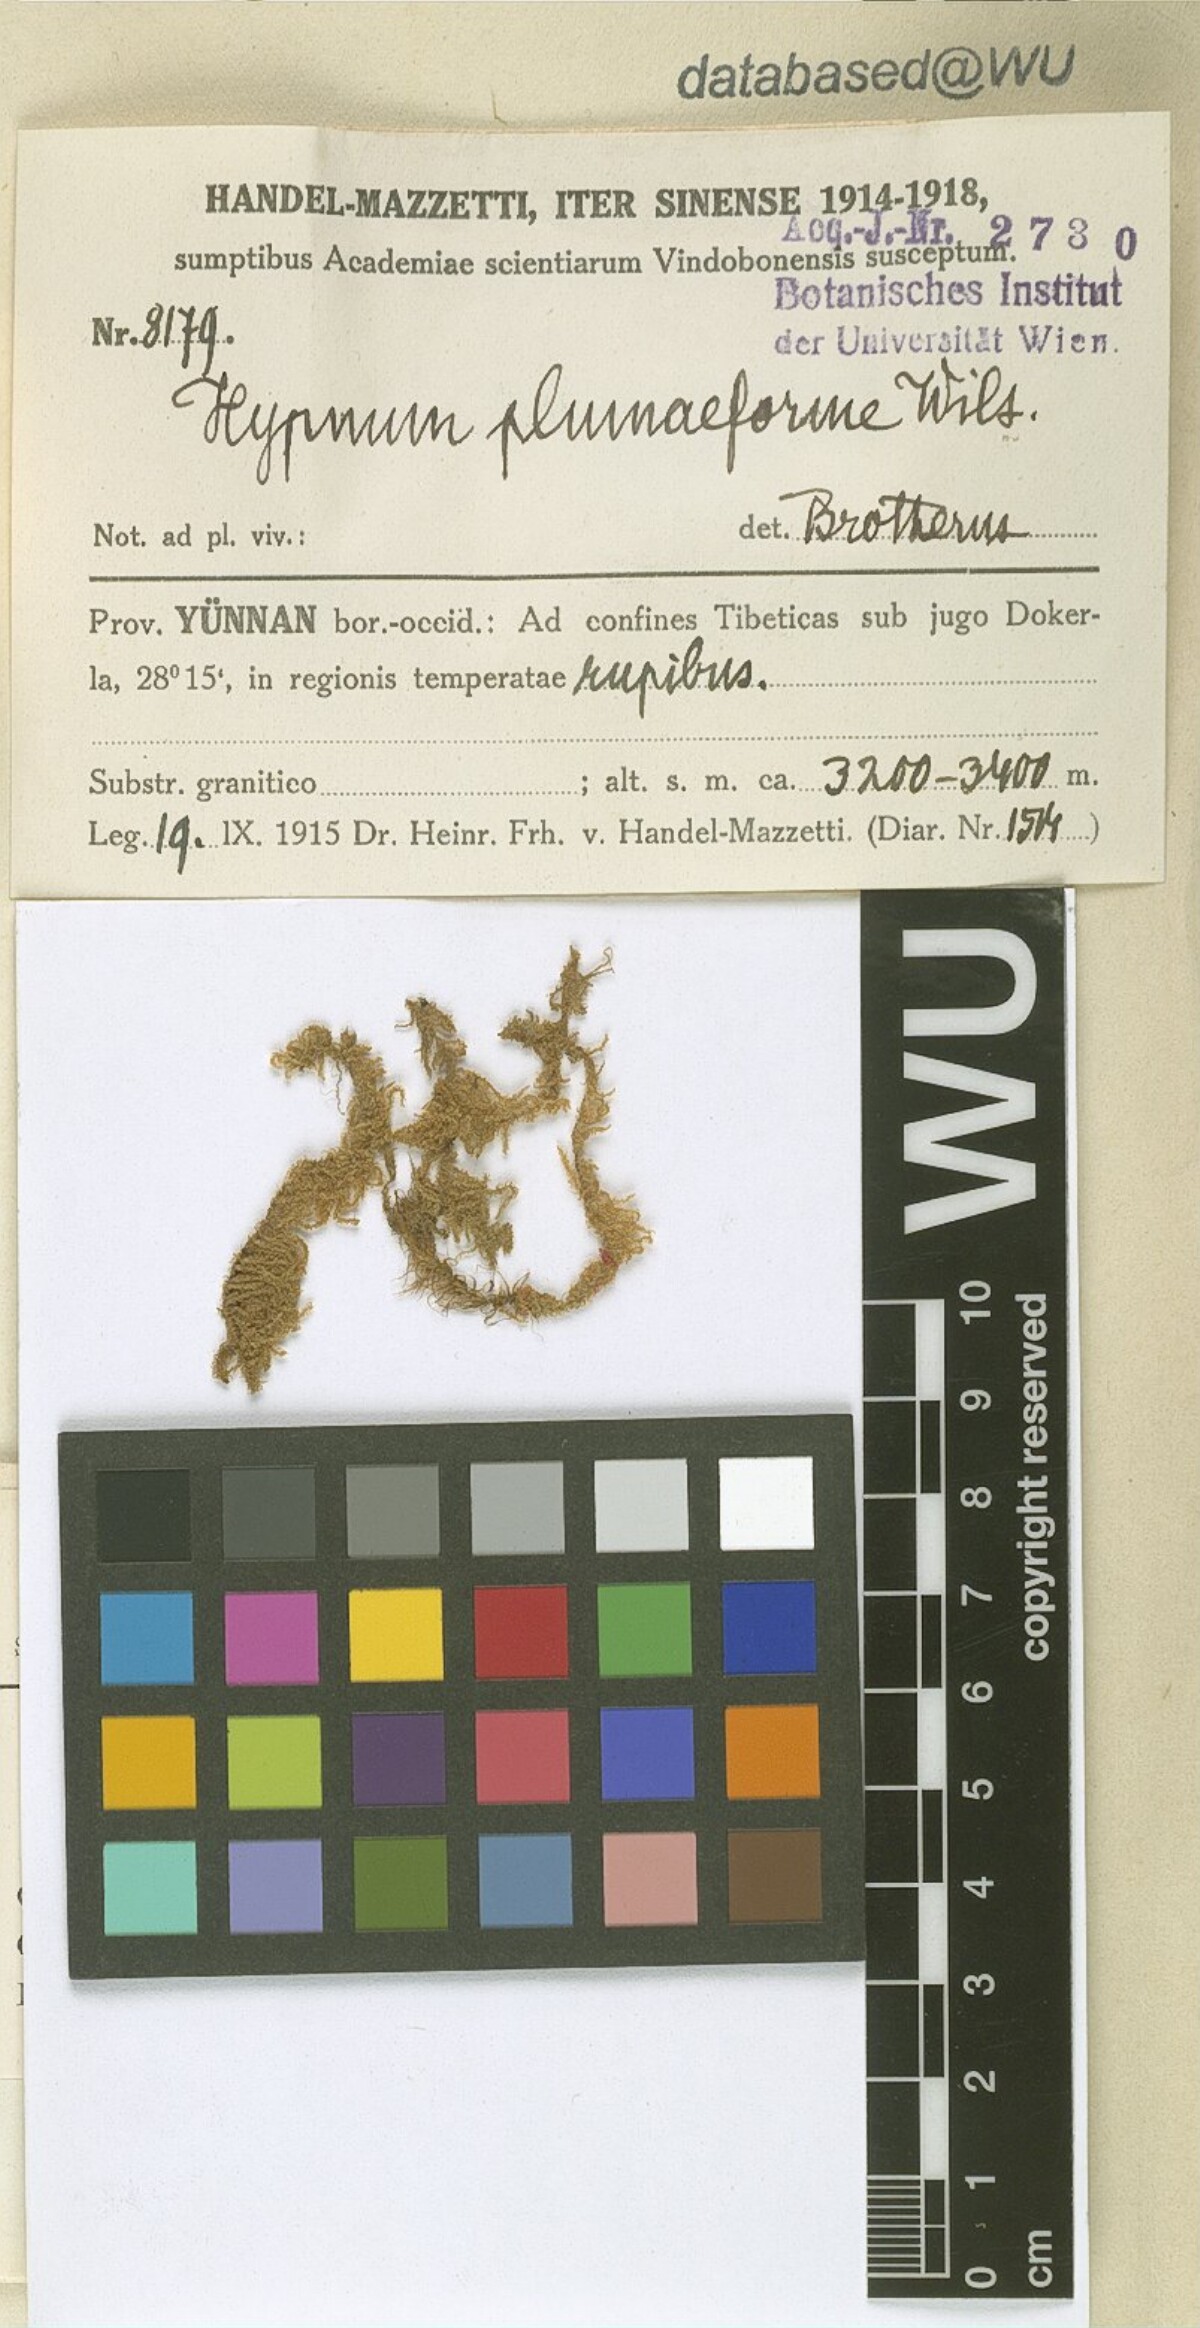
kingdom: Plantae
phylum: Bryophyta
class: Bryopsida
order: Hypnales
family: Hypnaceae
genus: Hypnum
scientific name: Hypnum plumaeforme
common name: Cypress-leaved plaitmoss
